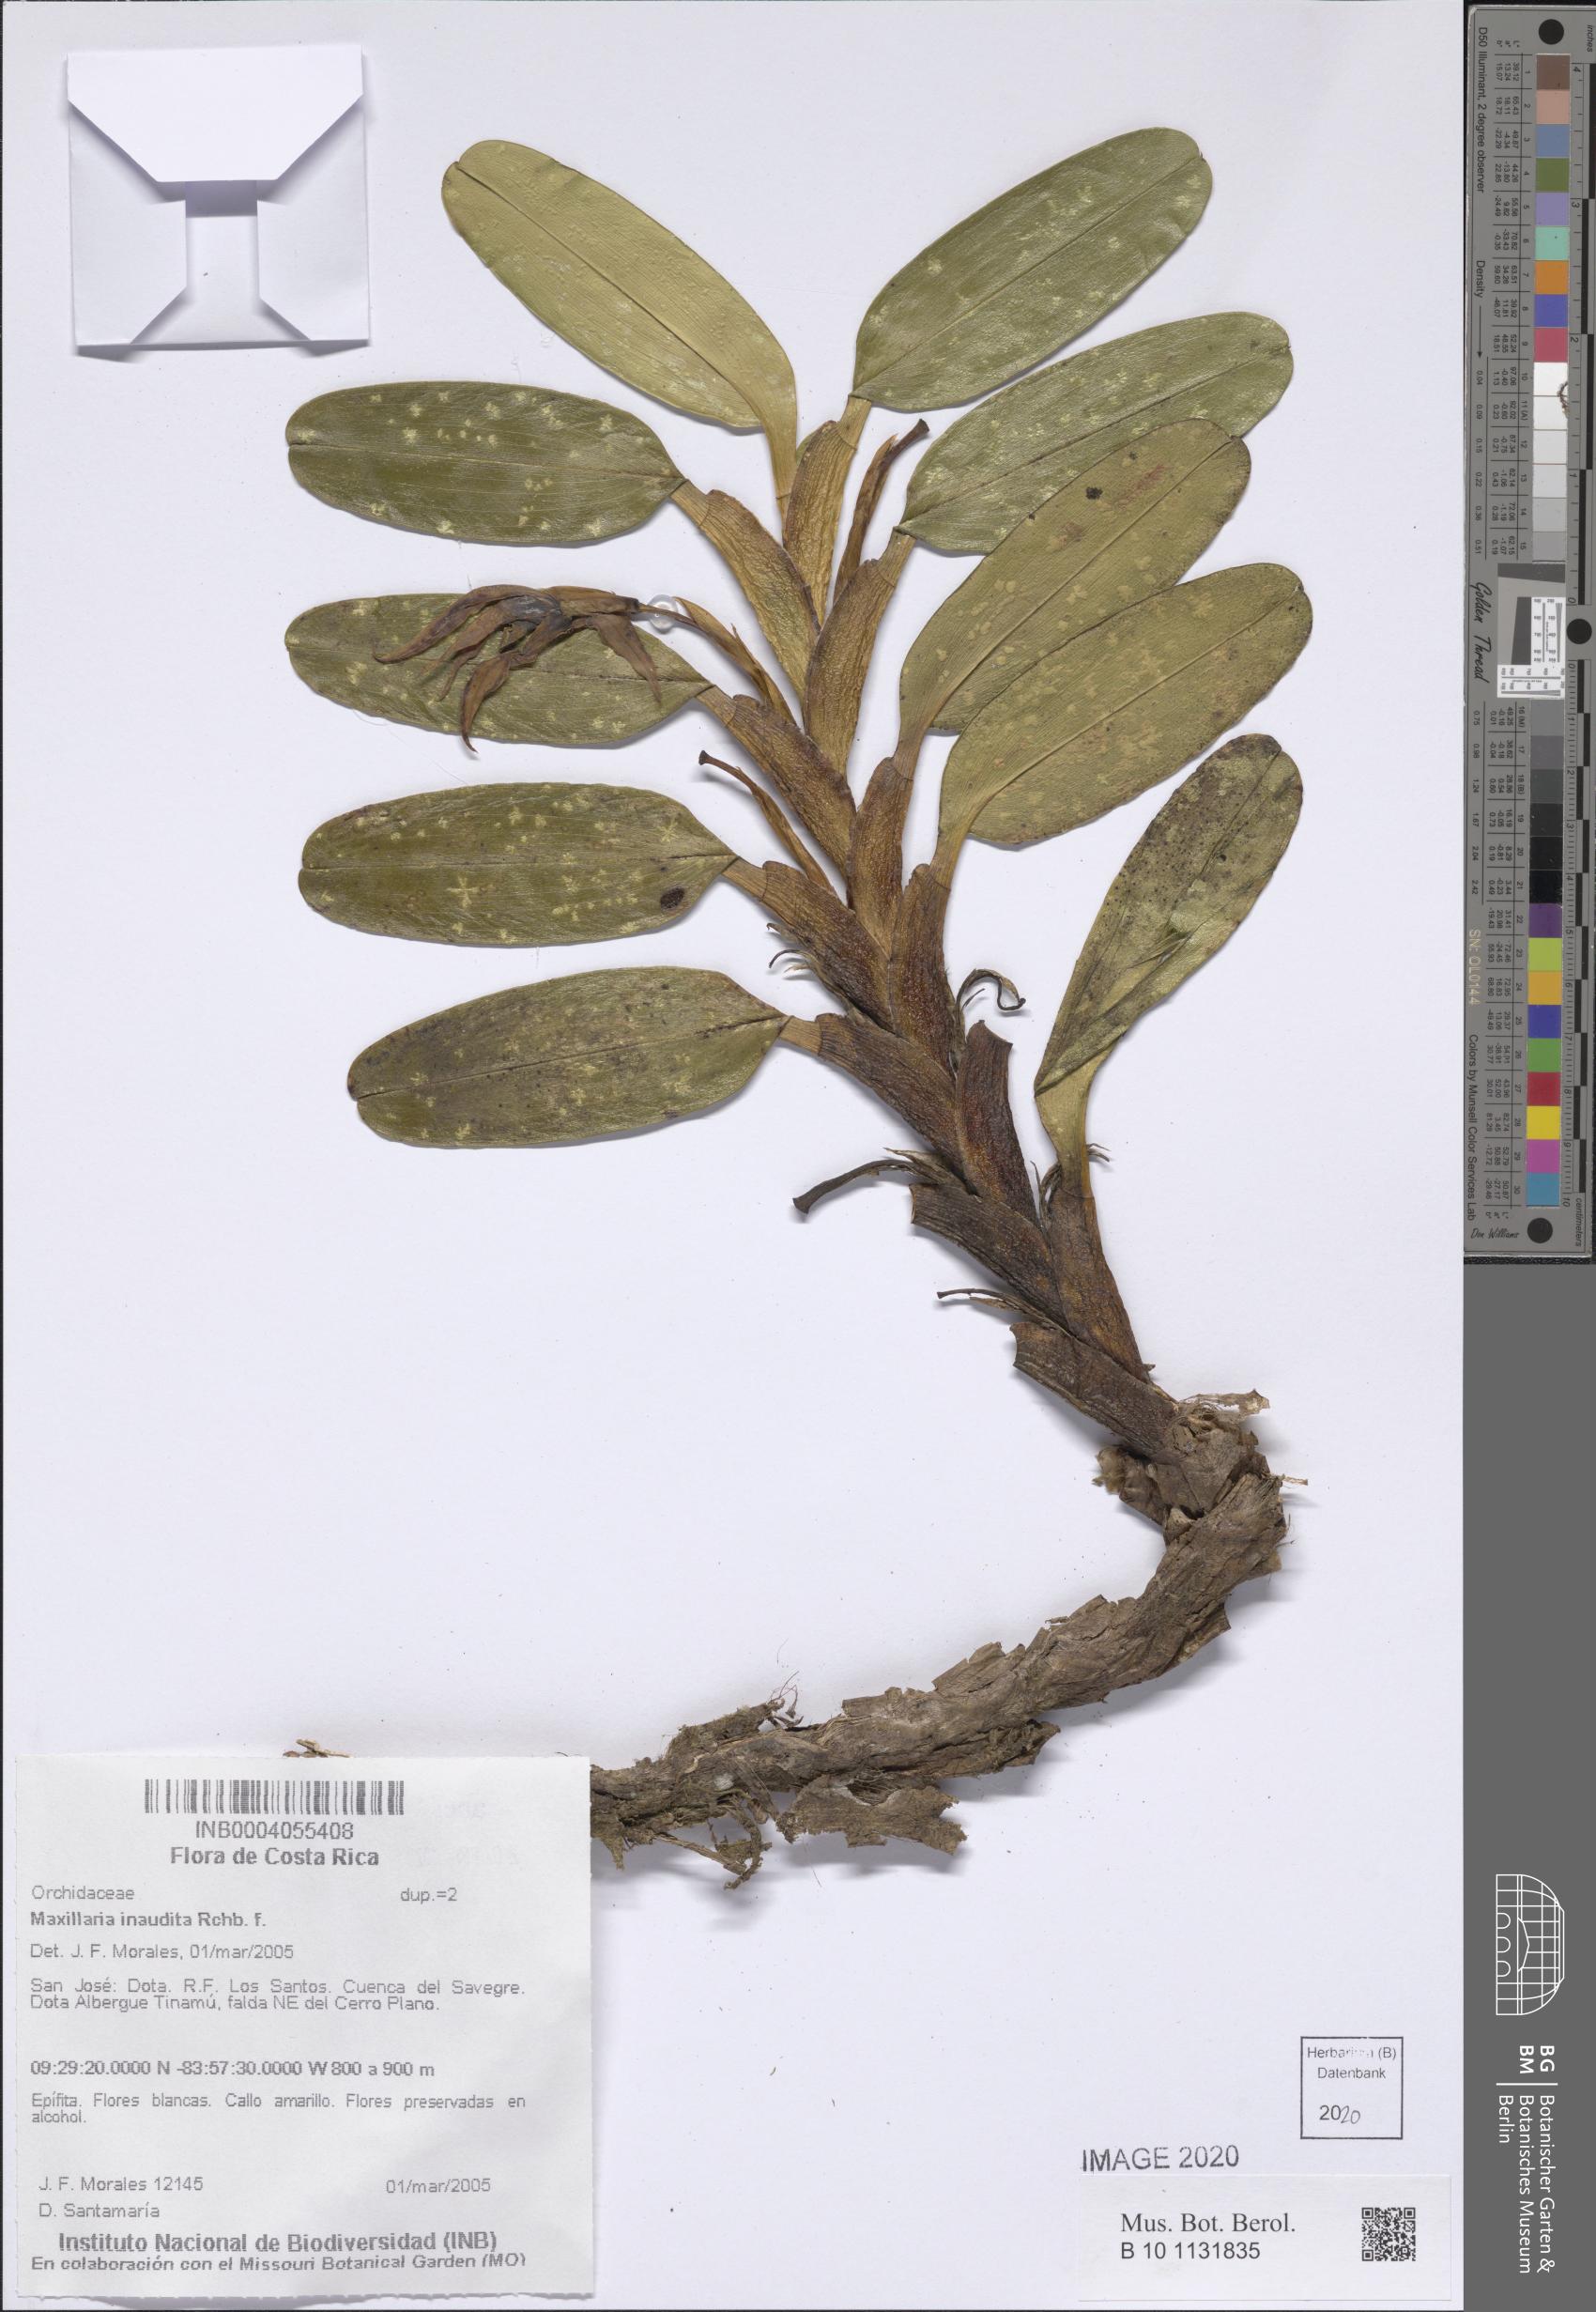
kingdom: Plantae
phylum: Tracheophyta
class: Liliopsida
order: Asparagales
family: Orchidaceae
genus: Maxillaria
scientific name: Maxillaria inaudita
